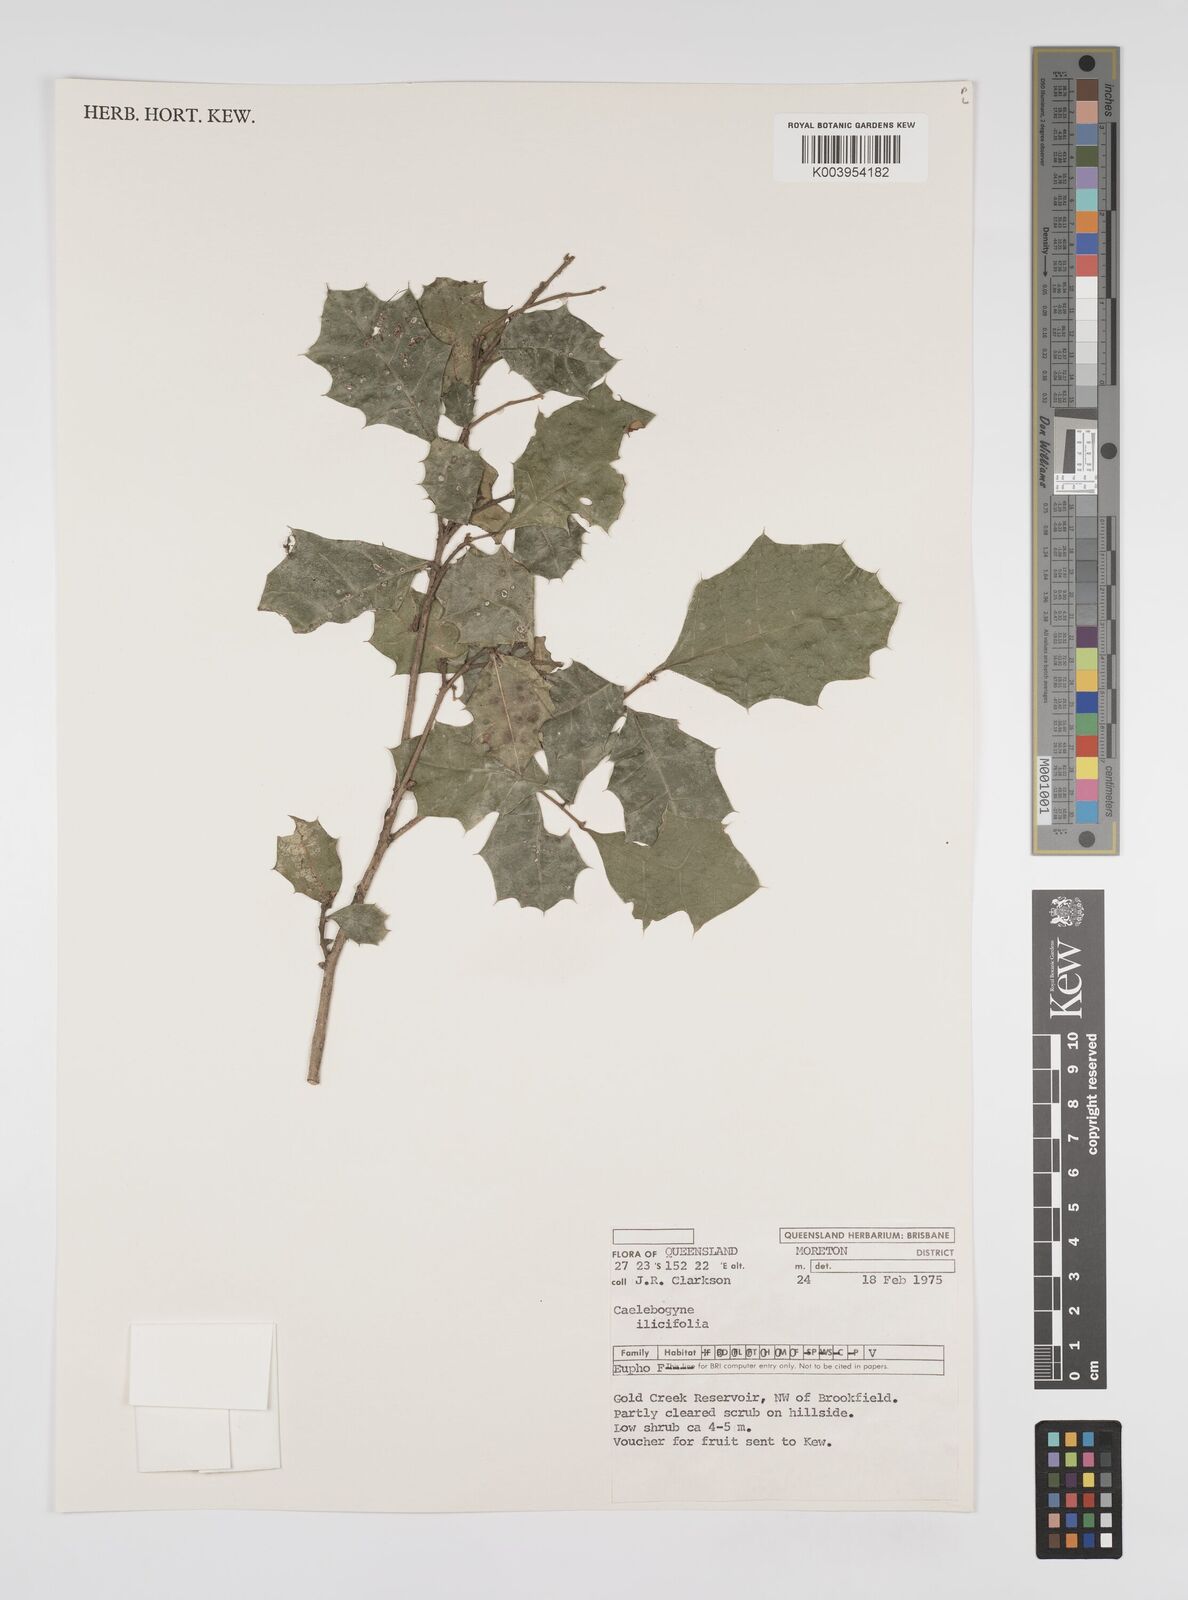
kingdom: Plantae
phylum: Tracheophyta
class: Magnoliopsida
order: Malpighiales
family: Euphorbiaceae
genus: Alchornea
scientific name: Alchornea ilicifolia
